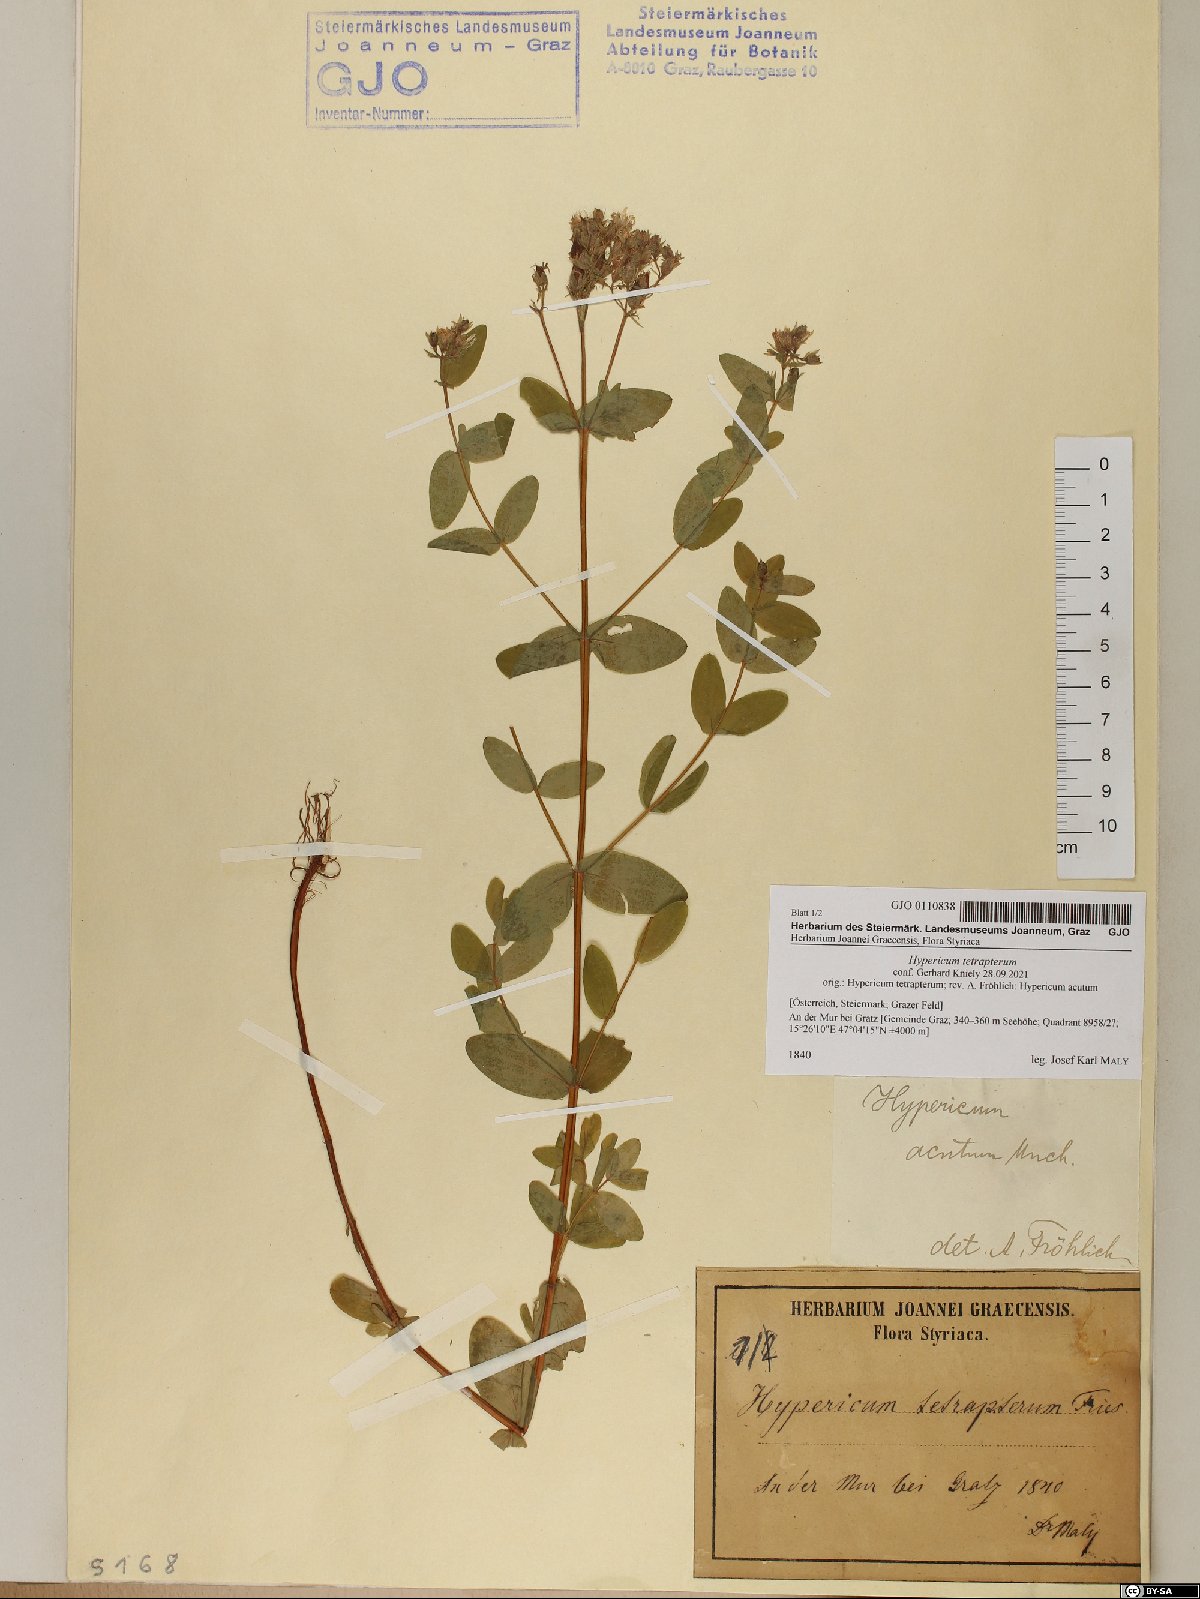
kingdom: Plantae
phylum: Tracheophyta
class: Magnoliopsida
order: Malpighiales
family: Hypericaceae
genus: Hypericum
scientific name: Hypericum tetrapterum
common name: Square-stalked st. john's-wort
